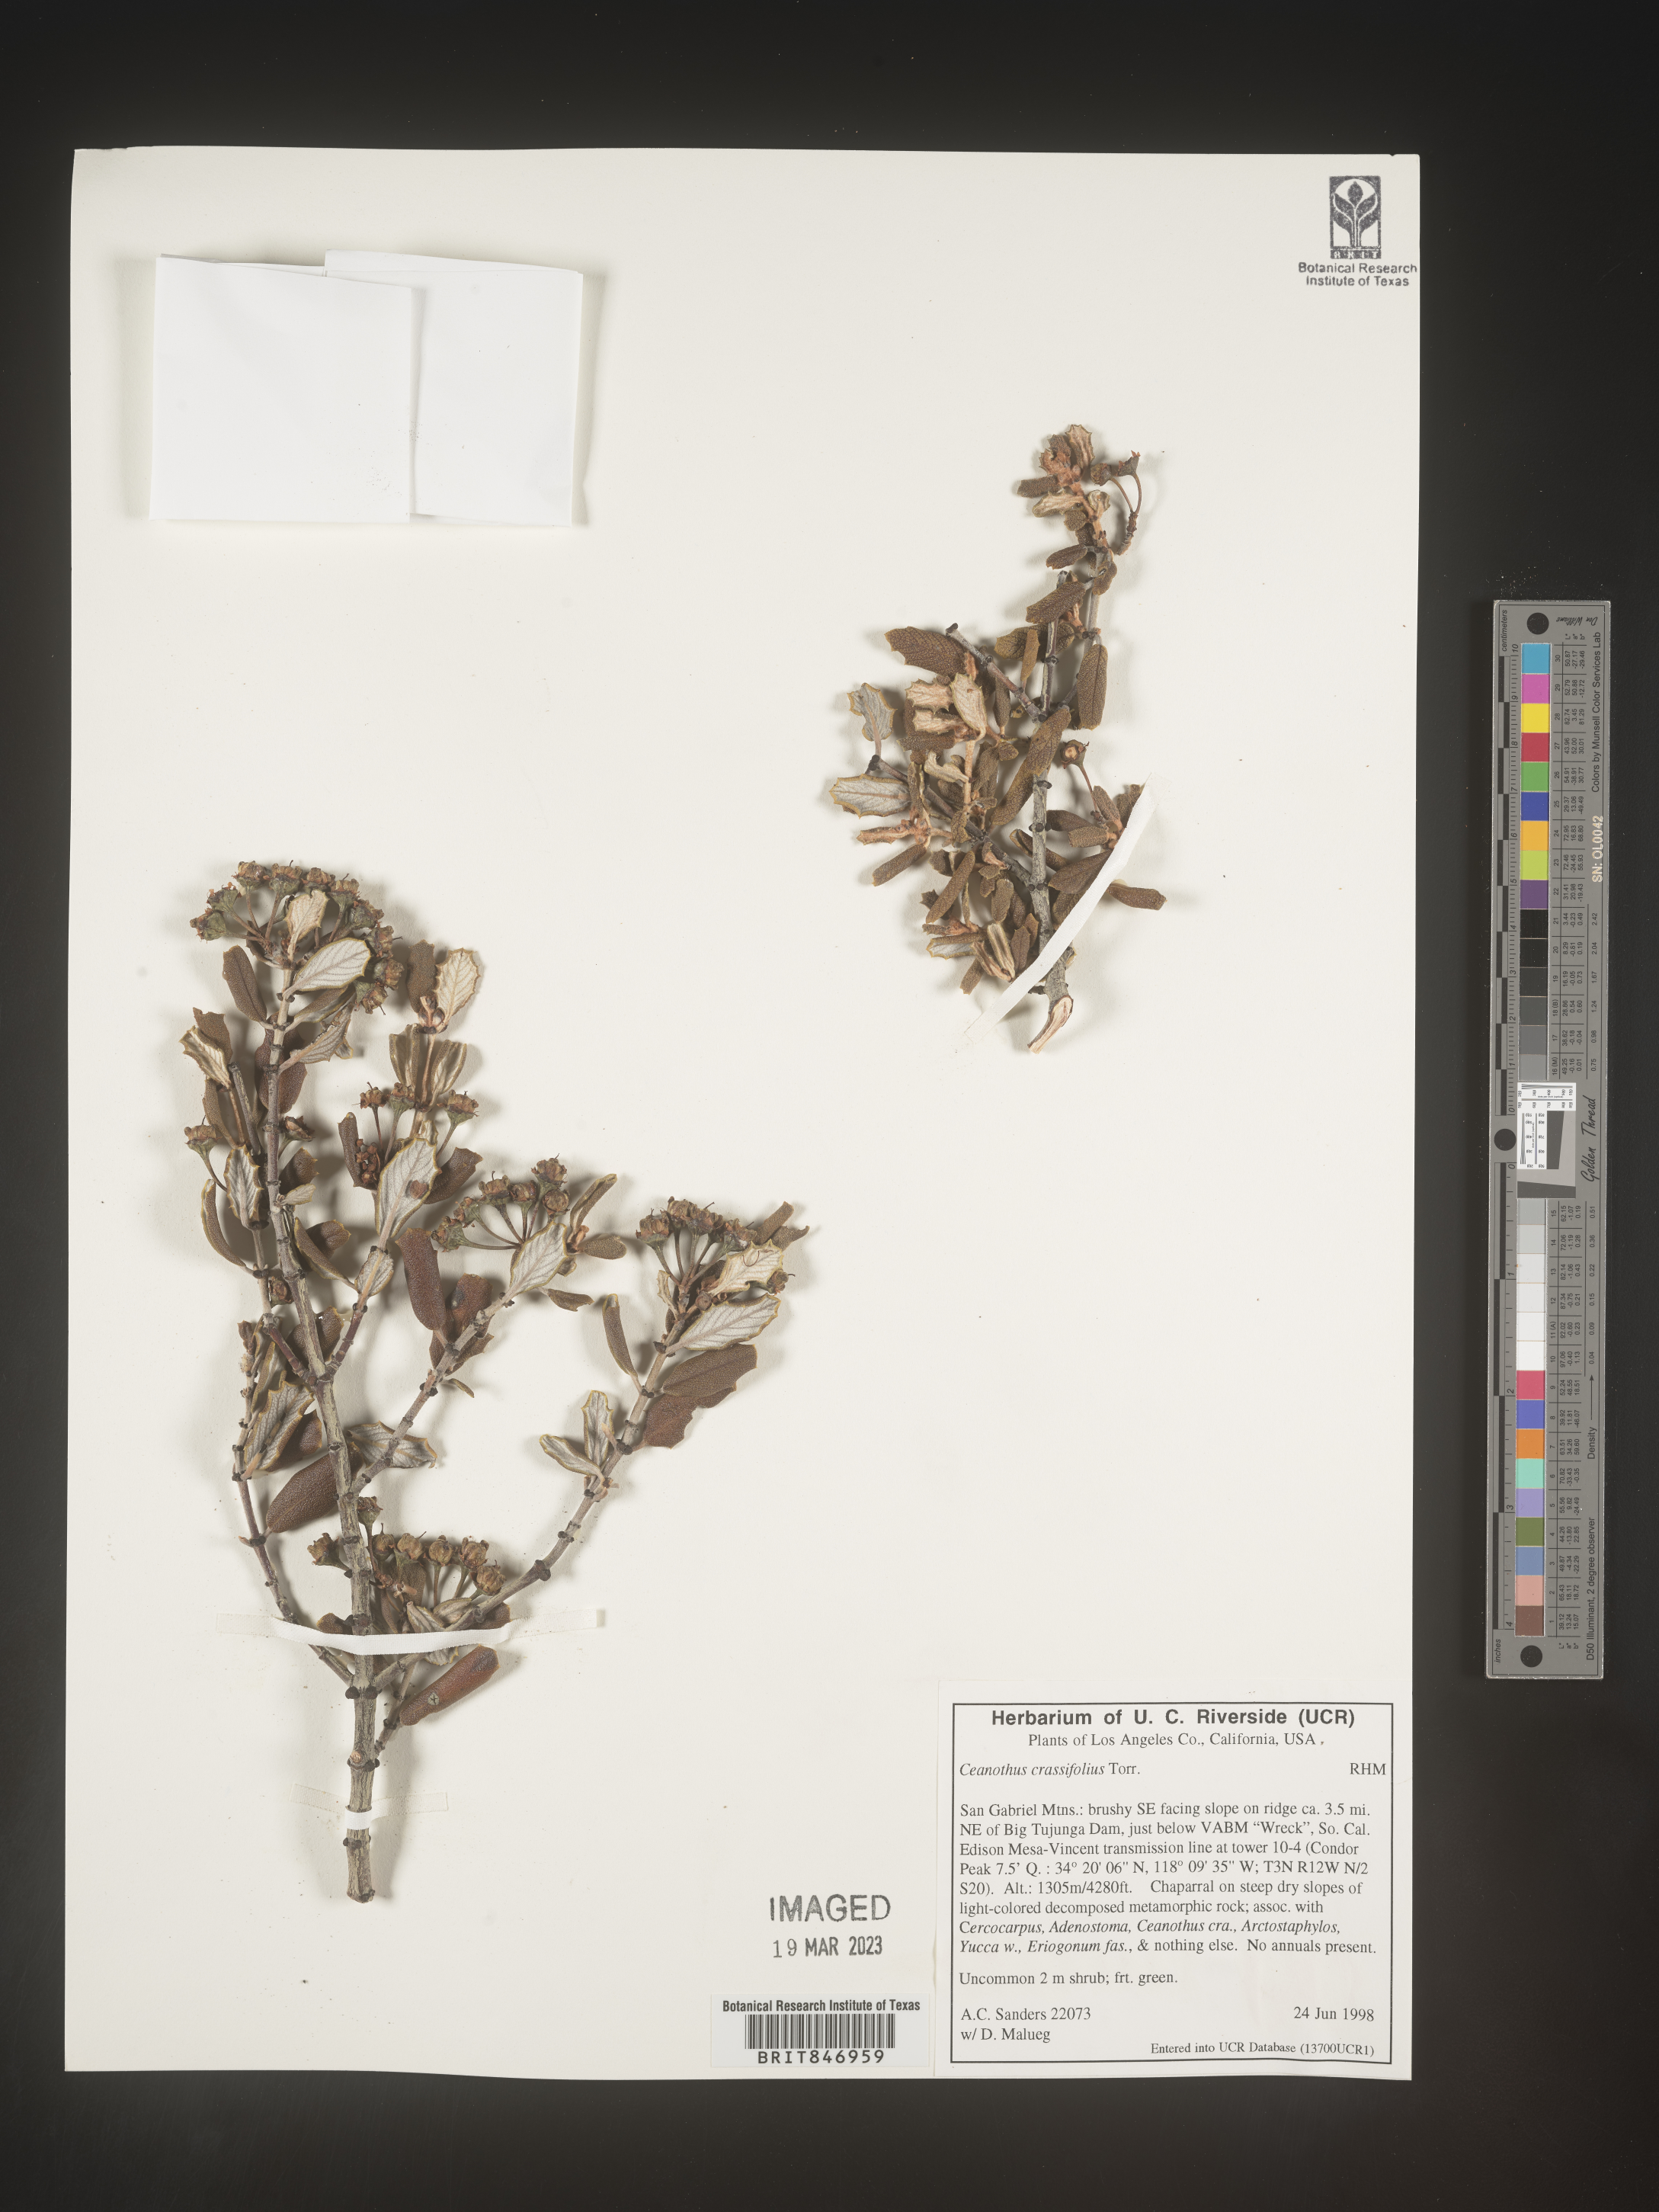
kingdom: Plantae
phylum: Tracheophyta
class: Magnoliopsida
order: Rosales
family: Rhamnaceae
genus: Ceanothus
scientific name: Ceanothus crassifolius
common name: Hoaryleaf ceanothus
